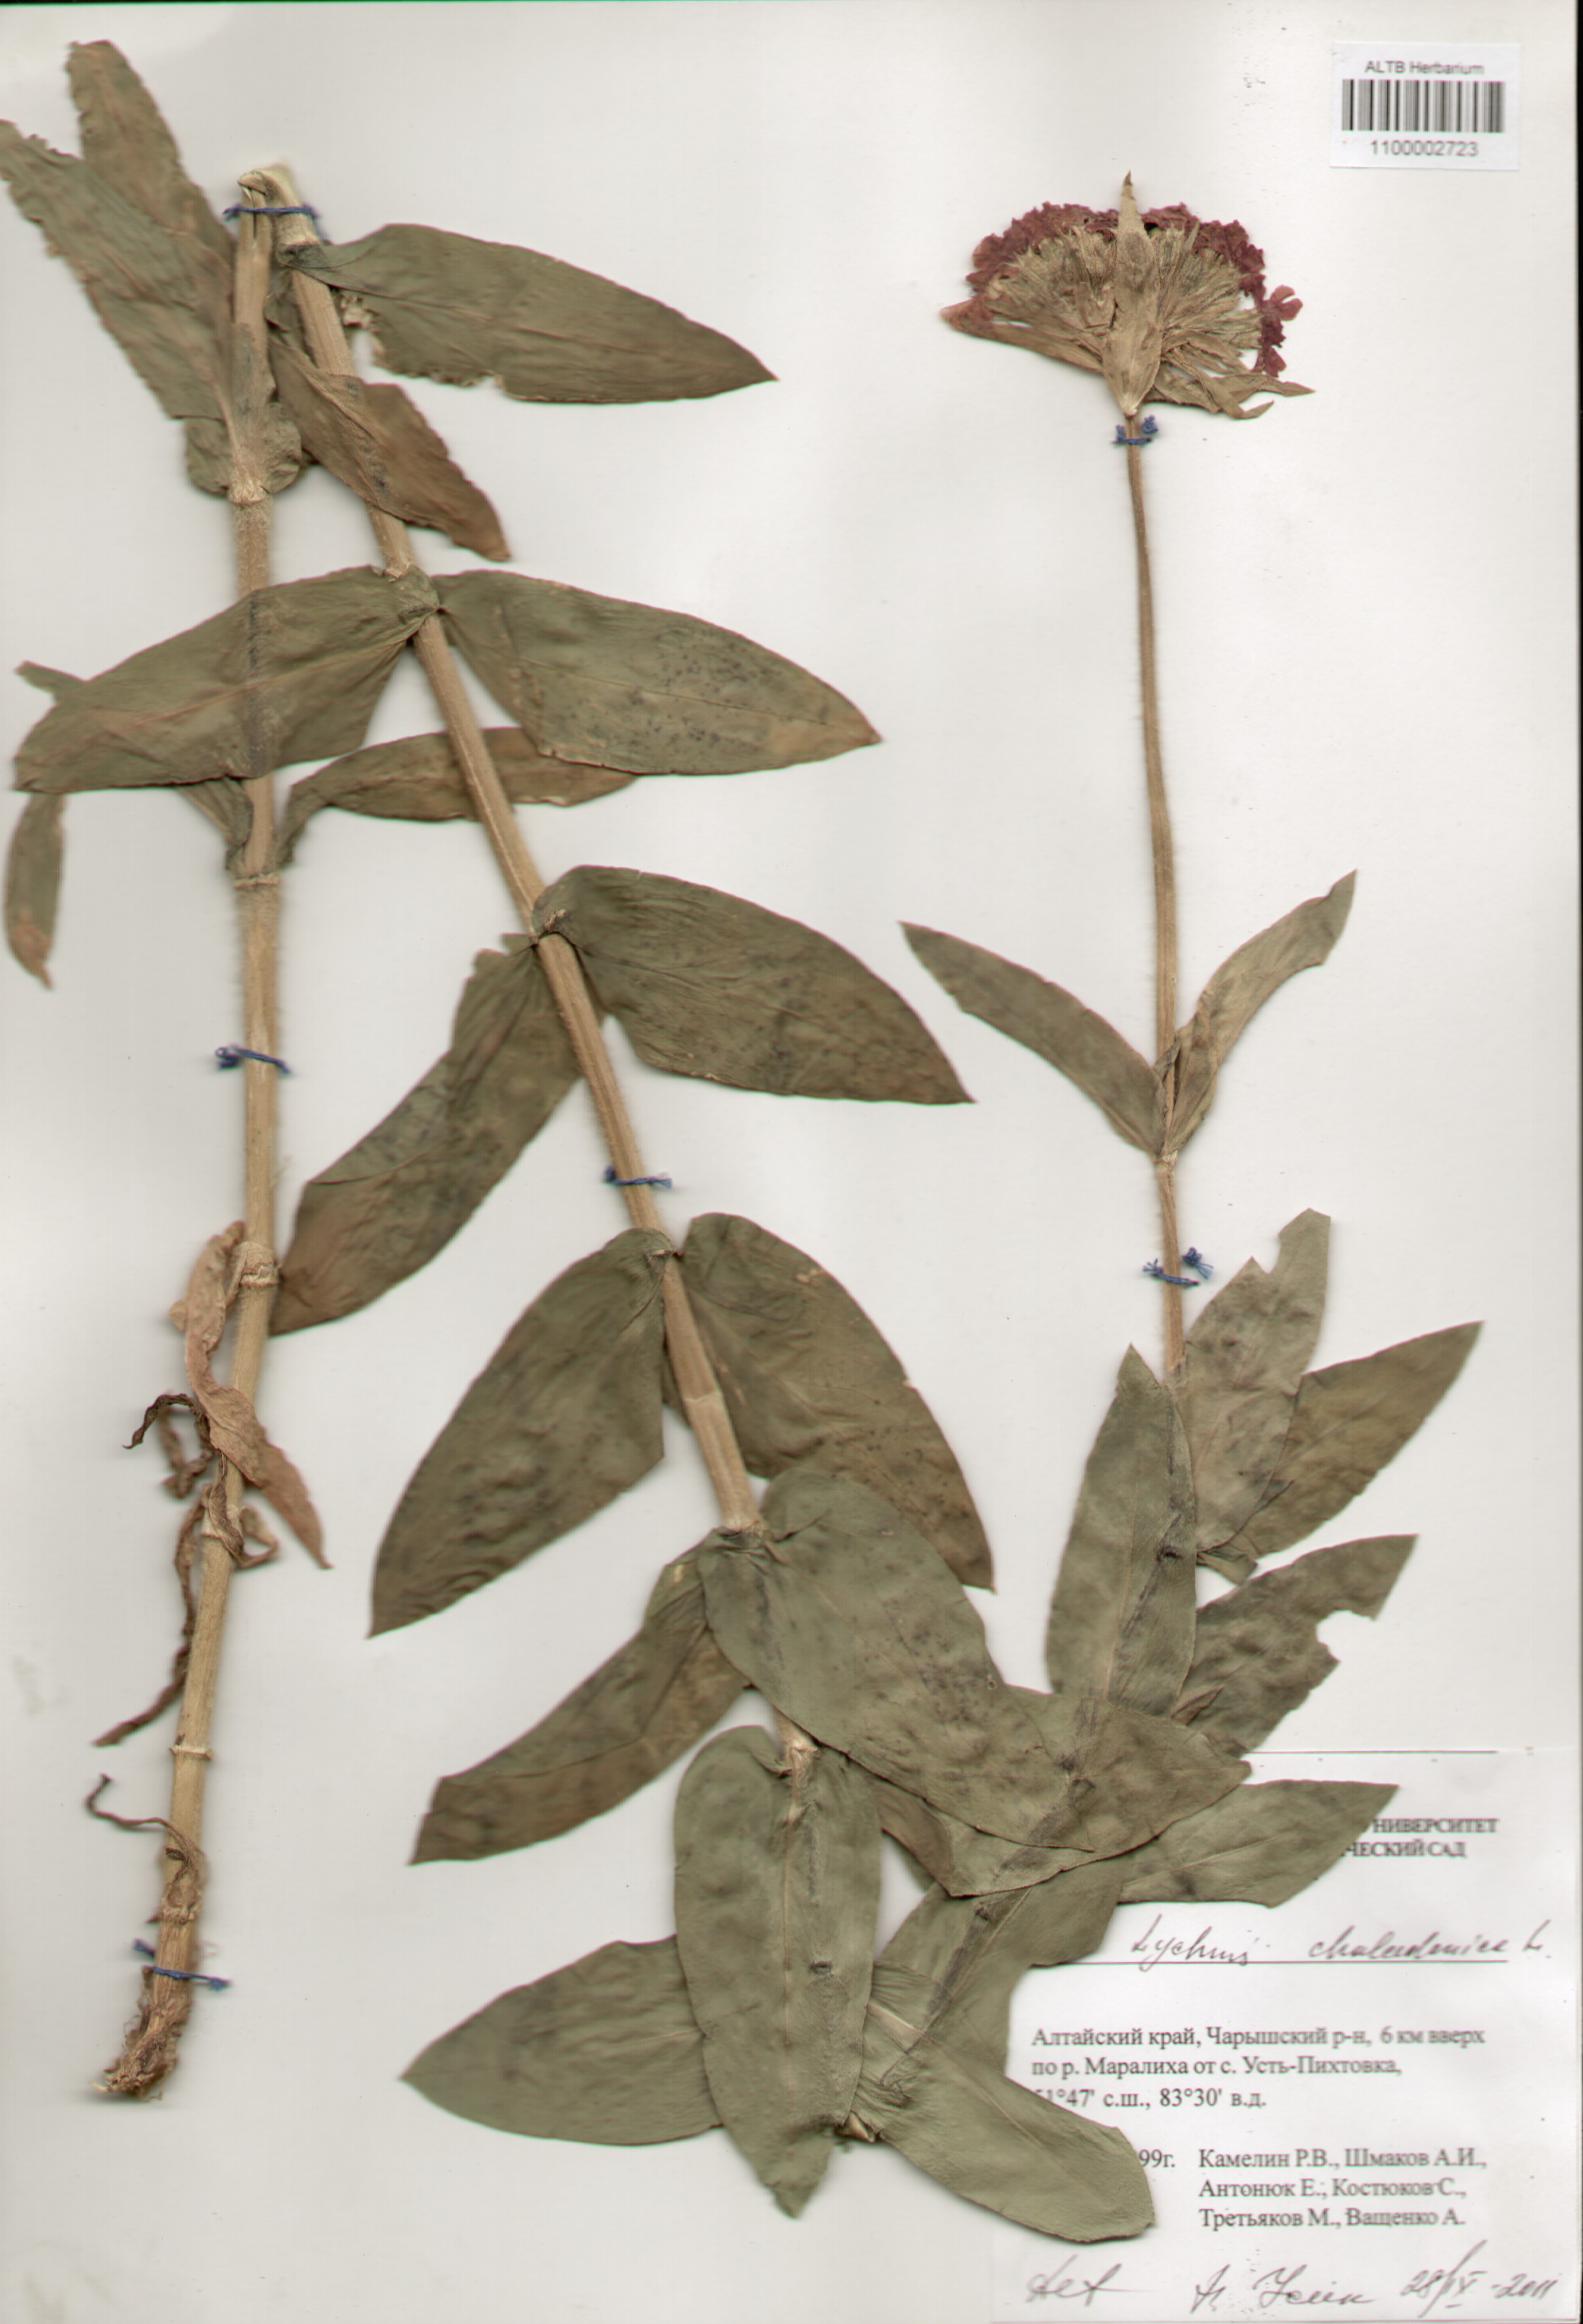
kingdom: Plantae
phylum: Tracheophyta
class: Magnoliopsida
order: Caryophyllales
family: Caryophyllaceae
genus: Silene
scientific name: Silene chalcedonica
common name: Maltese-cross
